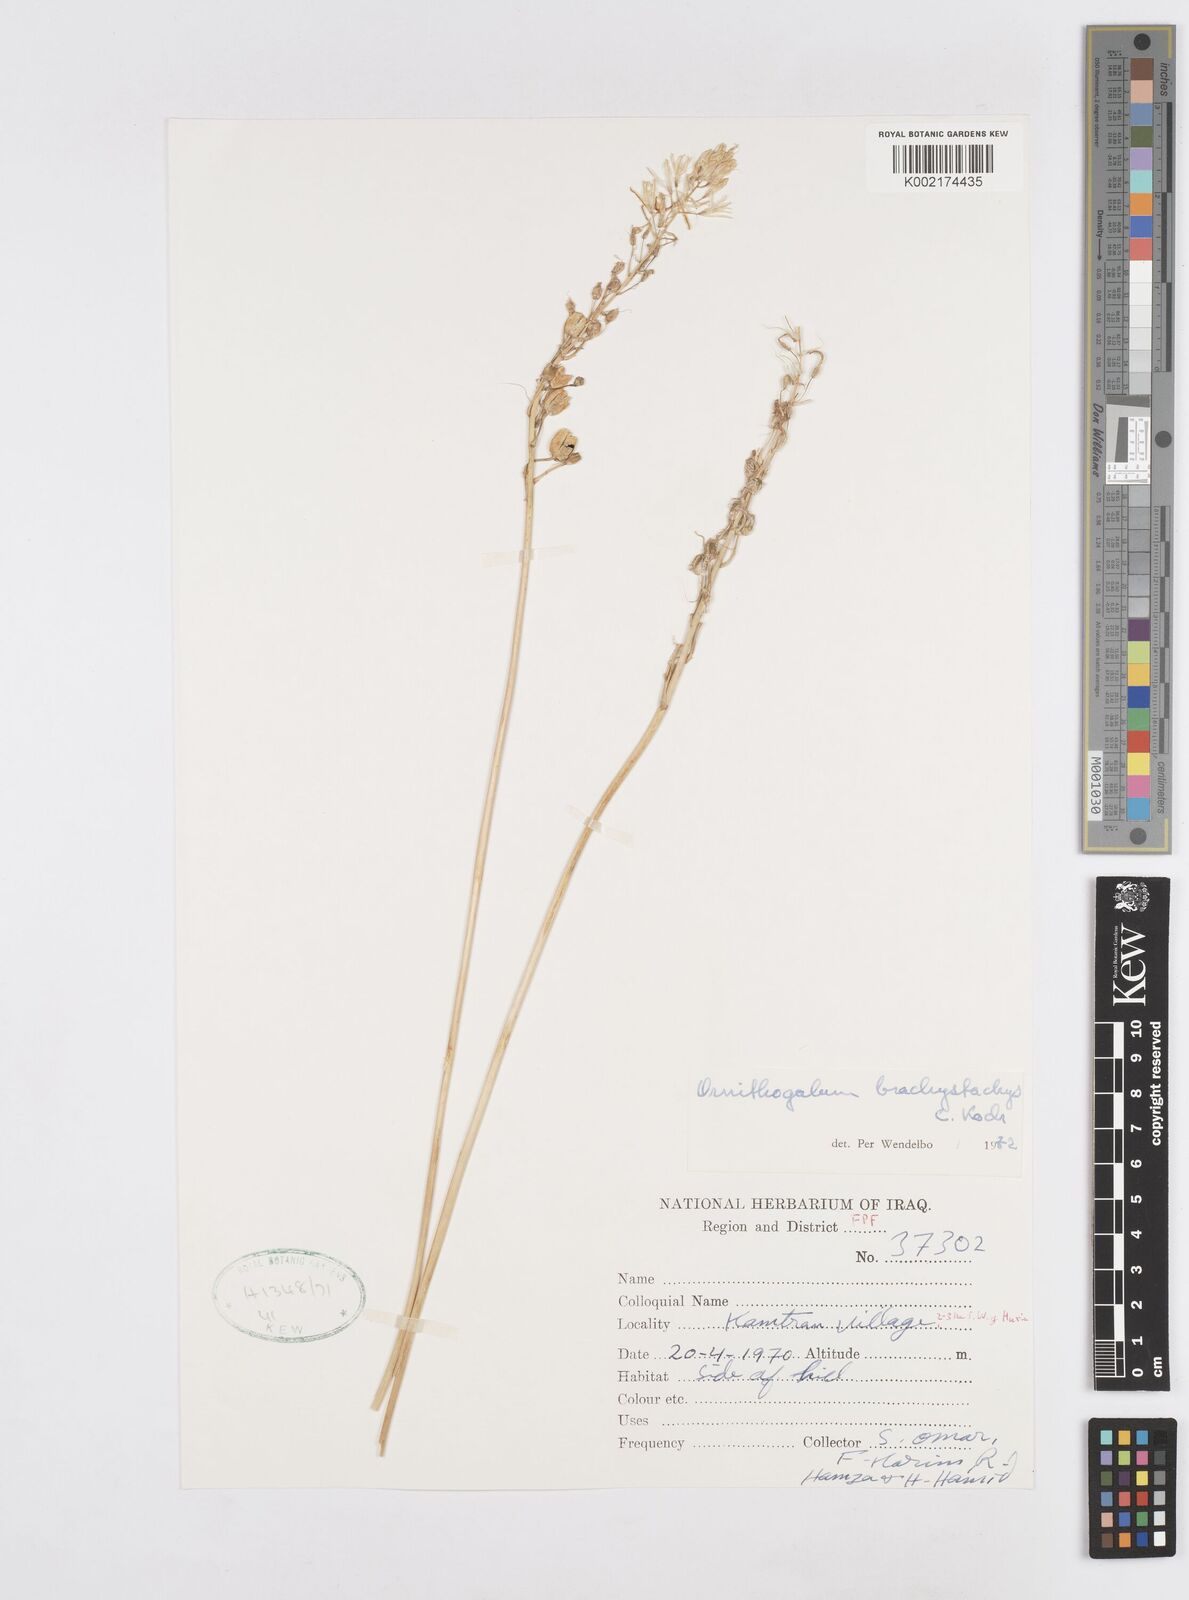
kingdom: Plantae
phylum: Tracheophyta
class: Liliopsida
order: Asparagales
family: Asparagaceae
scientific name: Asparagaceae
